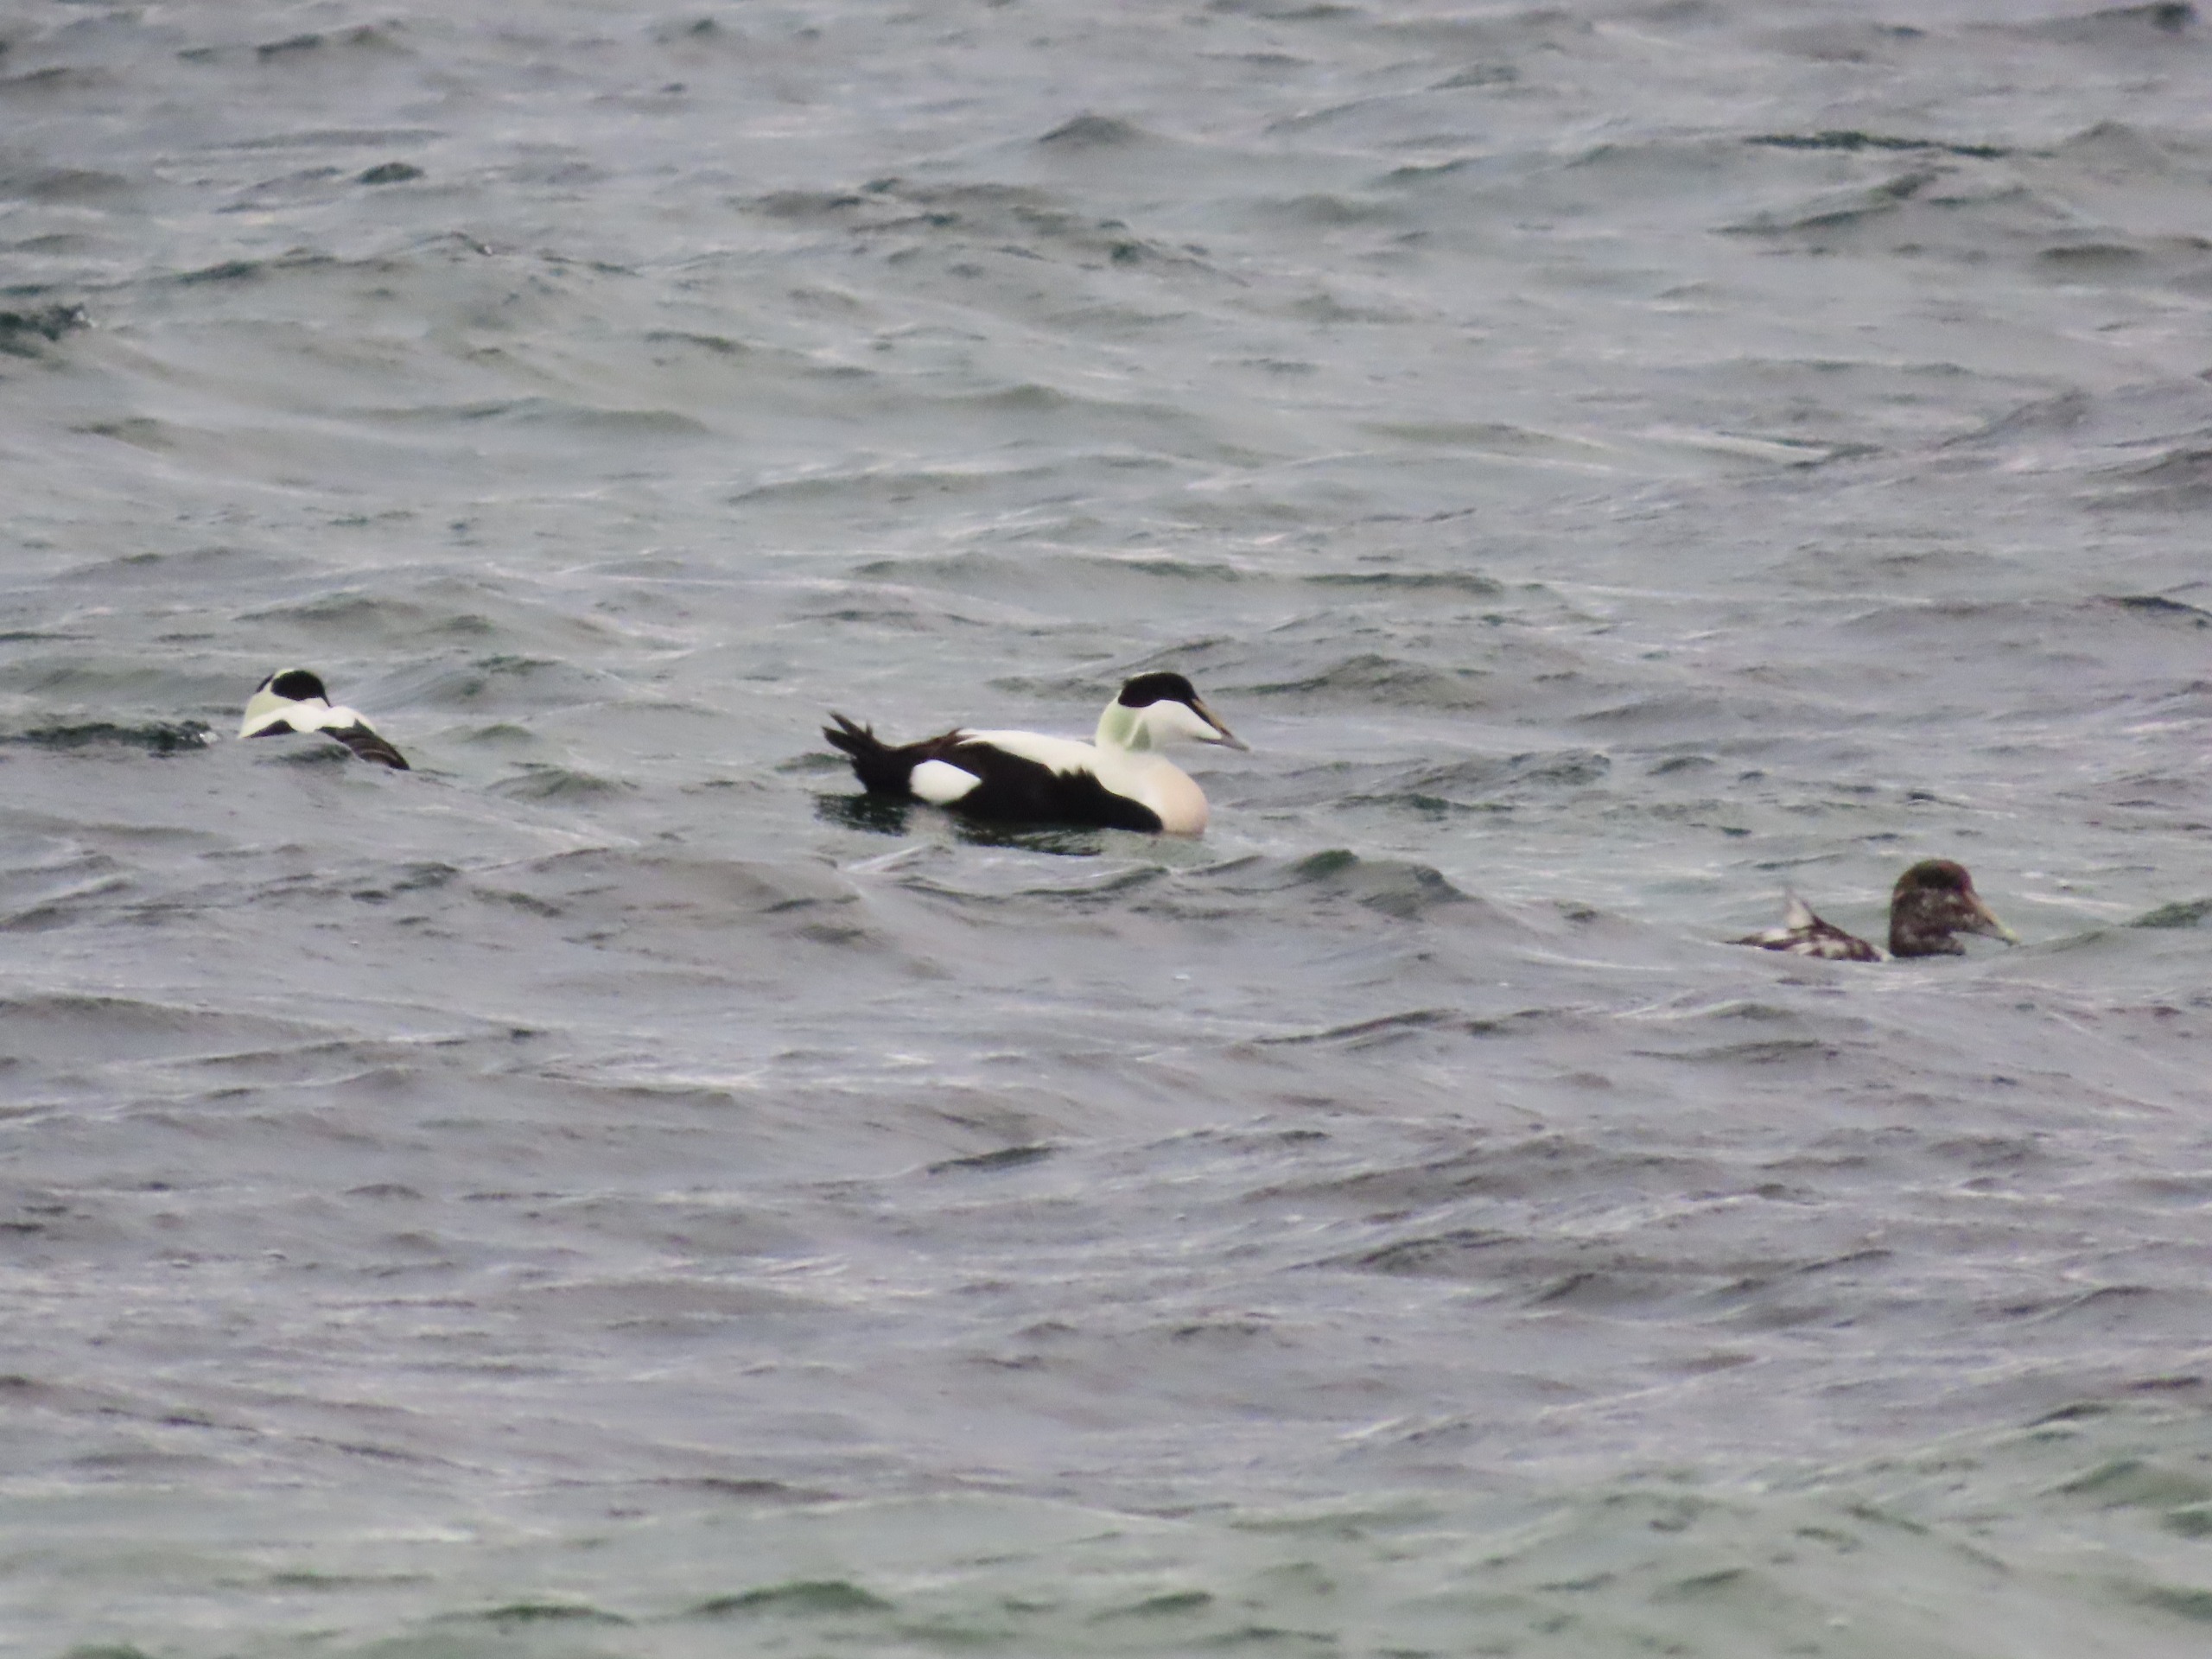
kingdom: Animalia
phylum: Chordata
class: Aves
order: Anseriformes
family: Anatidae
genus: Somateria
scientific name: Somateria mollissima
